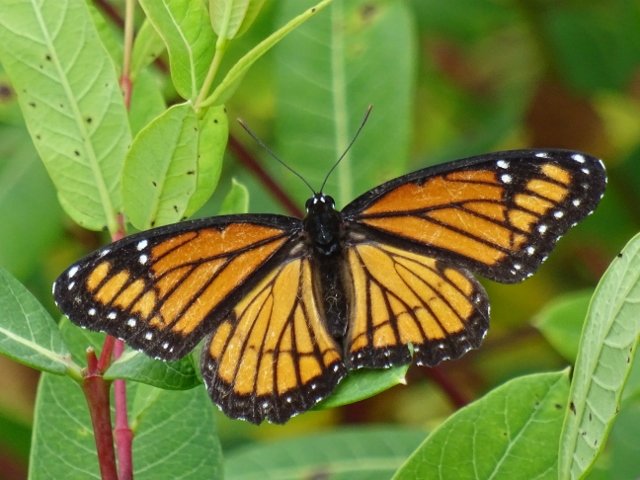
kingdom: Animalia
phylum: Arthropoda
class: Insecta
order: Lepidoptera
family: Nymphalidae
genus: Limenitis
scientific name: Limenitis archippus
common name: Viceroy
